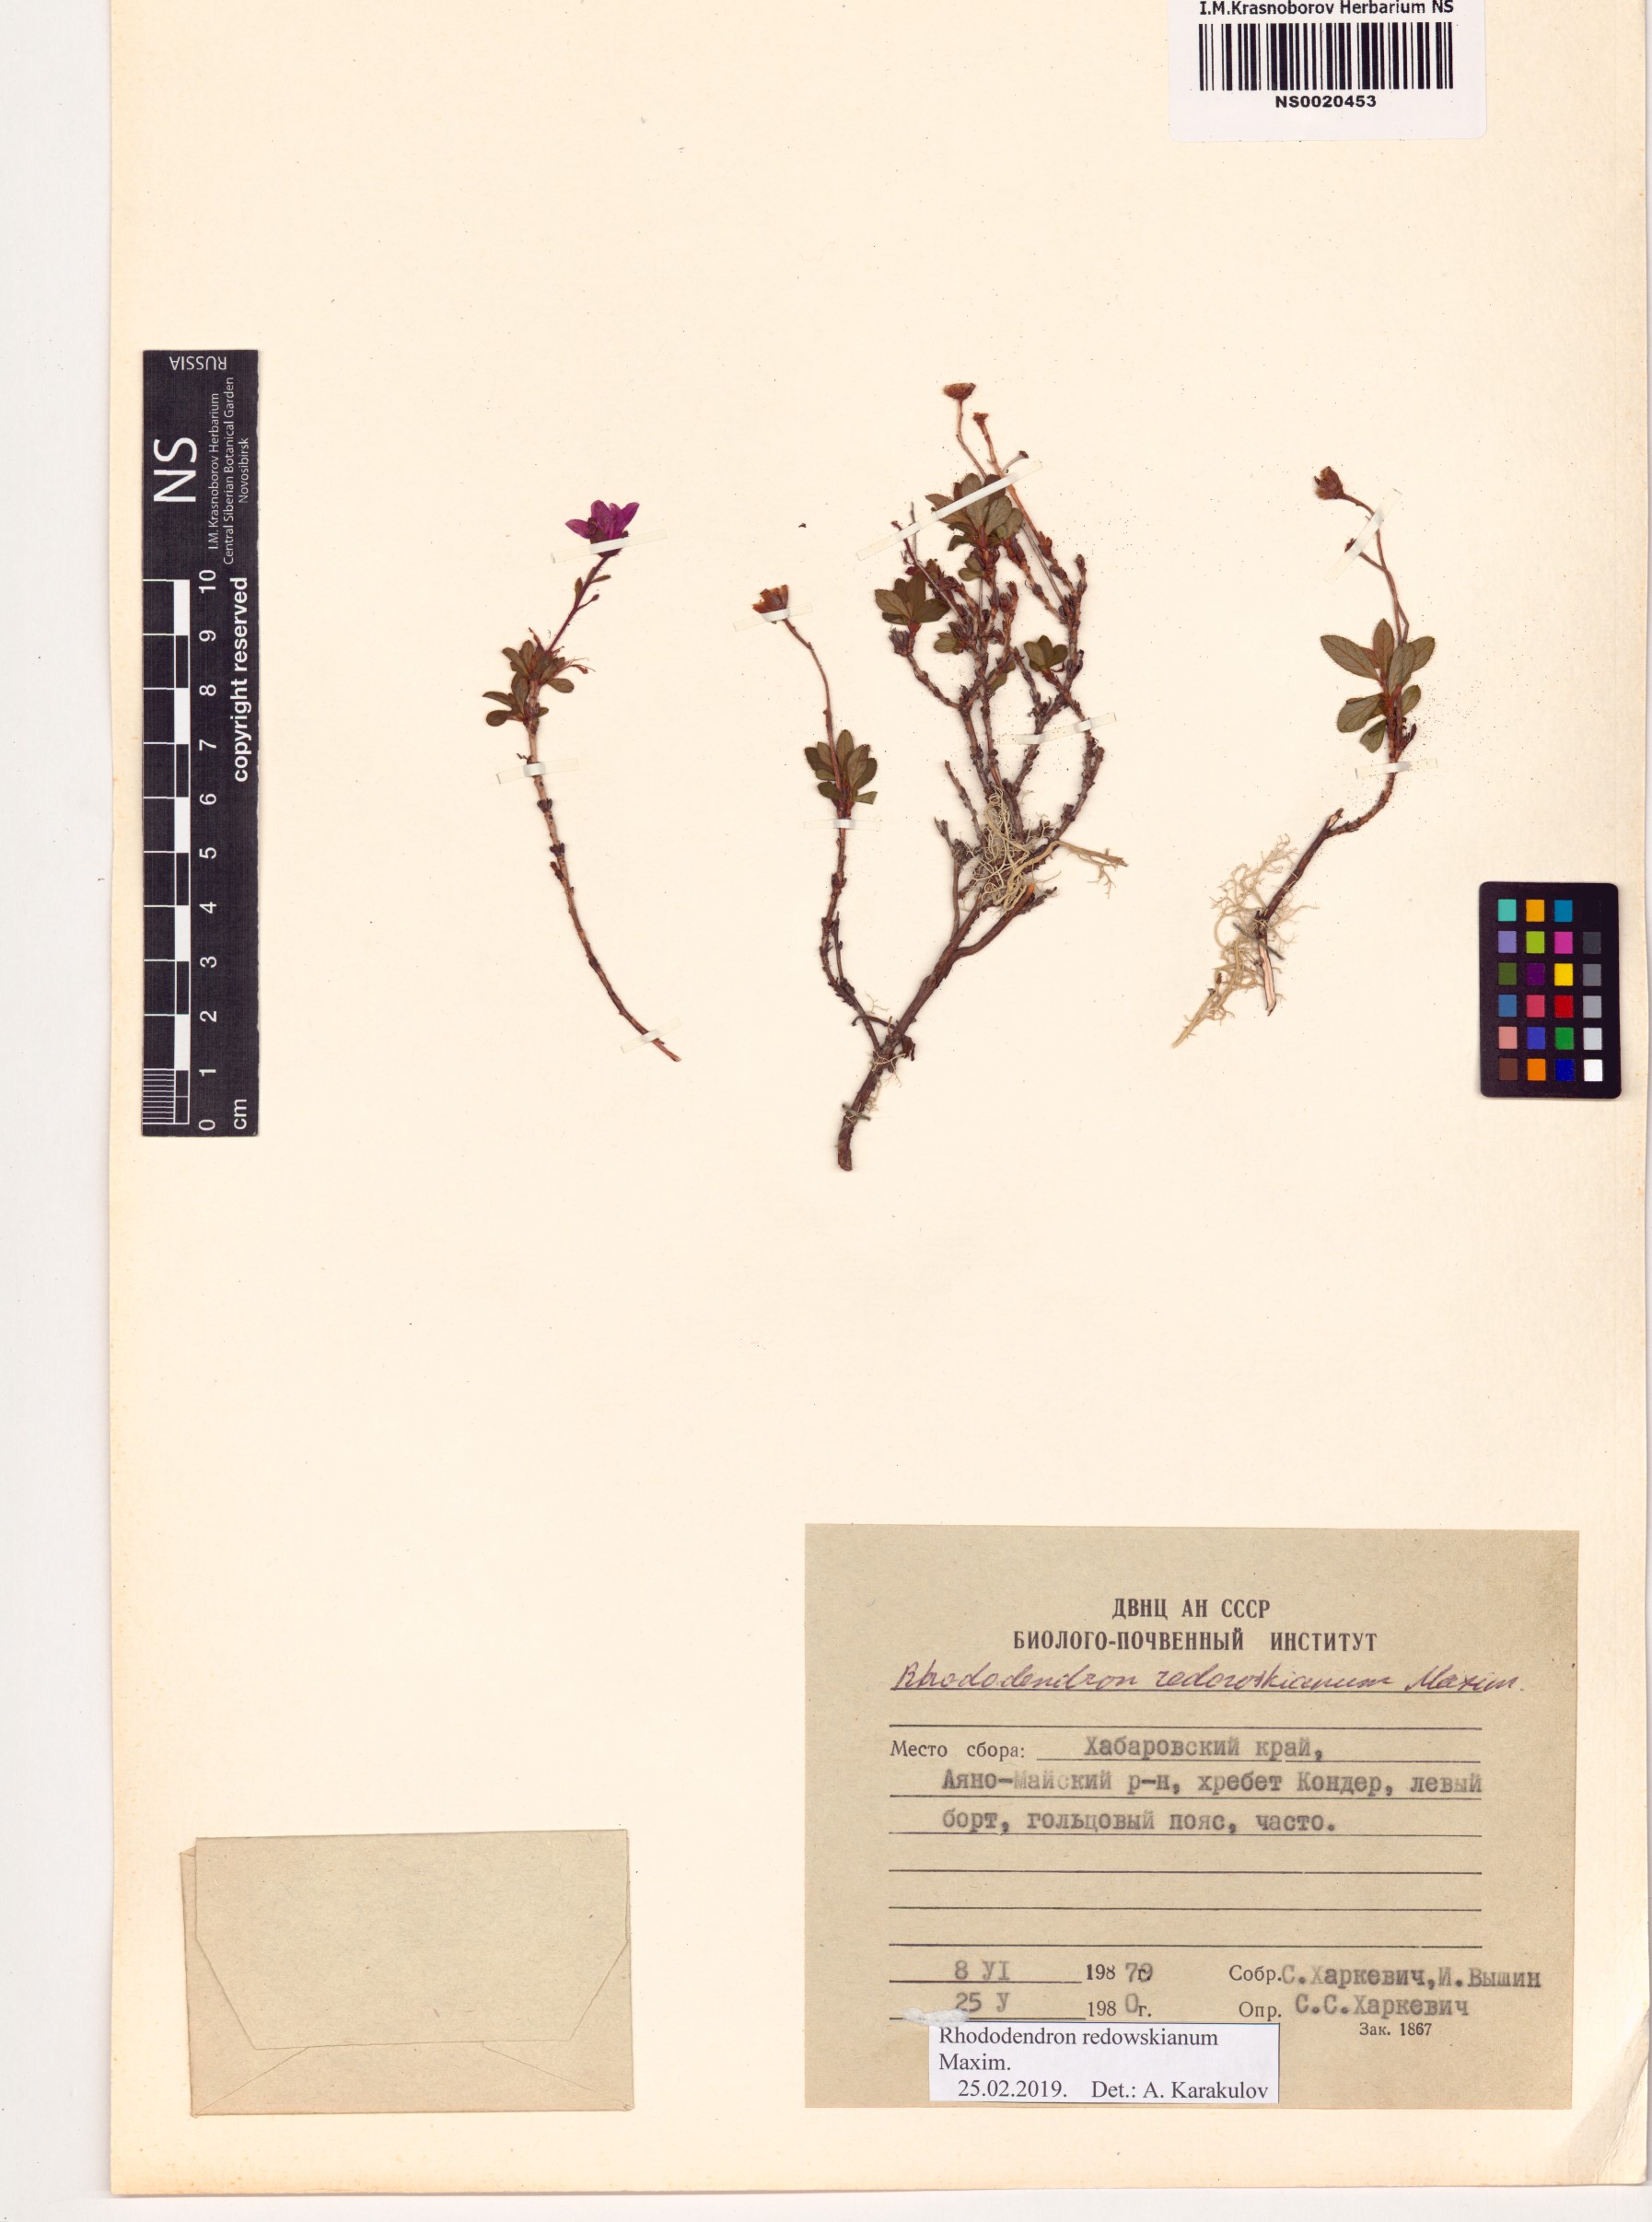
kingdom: Plantae
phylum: Tracheophyta
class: Magnoliopsida
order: Ericales
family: Ericaceae
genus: Rhododendron
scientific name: Rhododendron redowskianum
